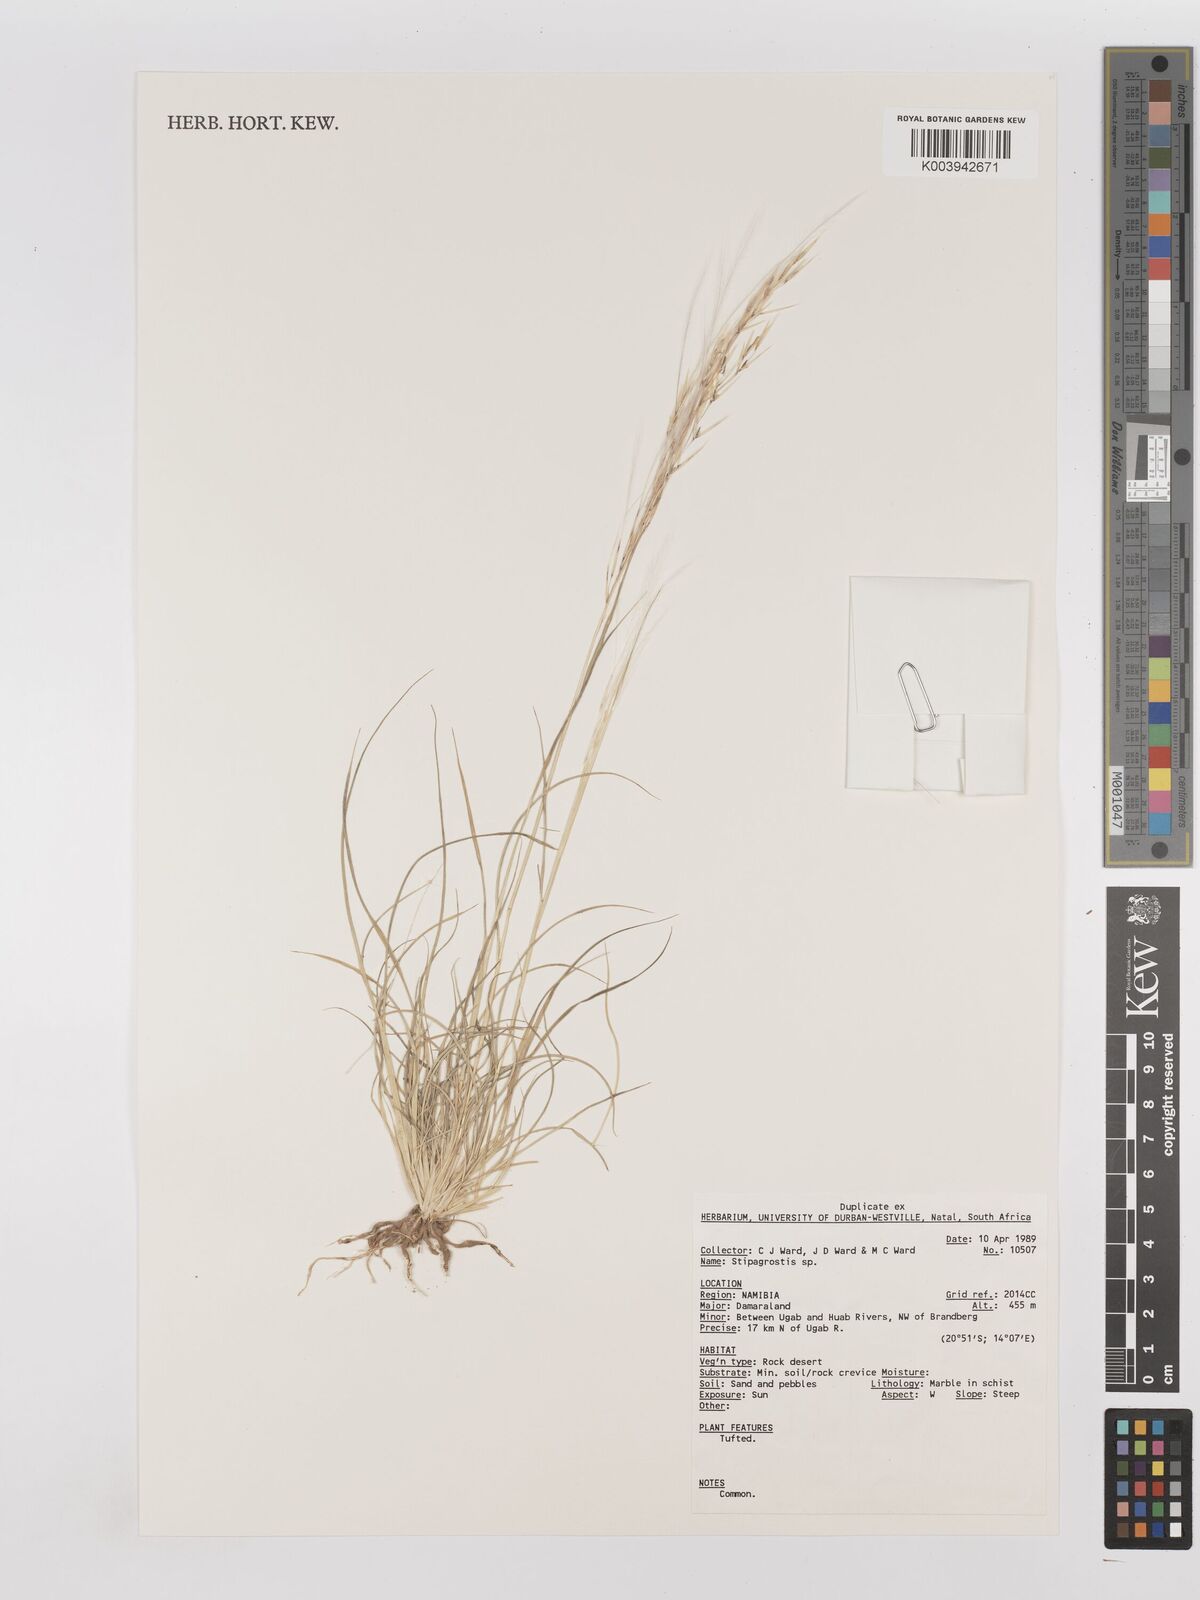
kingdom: Plantae
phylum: Tracheophyta
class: Liliopsida
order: Poales
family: Poaceae
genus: Stipagrostis
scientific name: Stipagrostis
